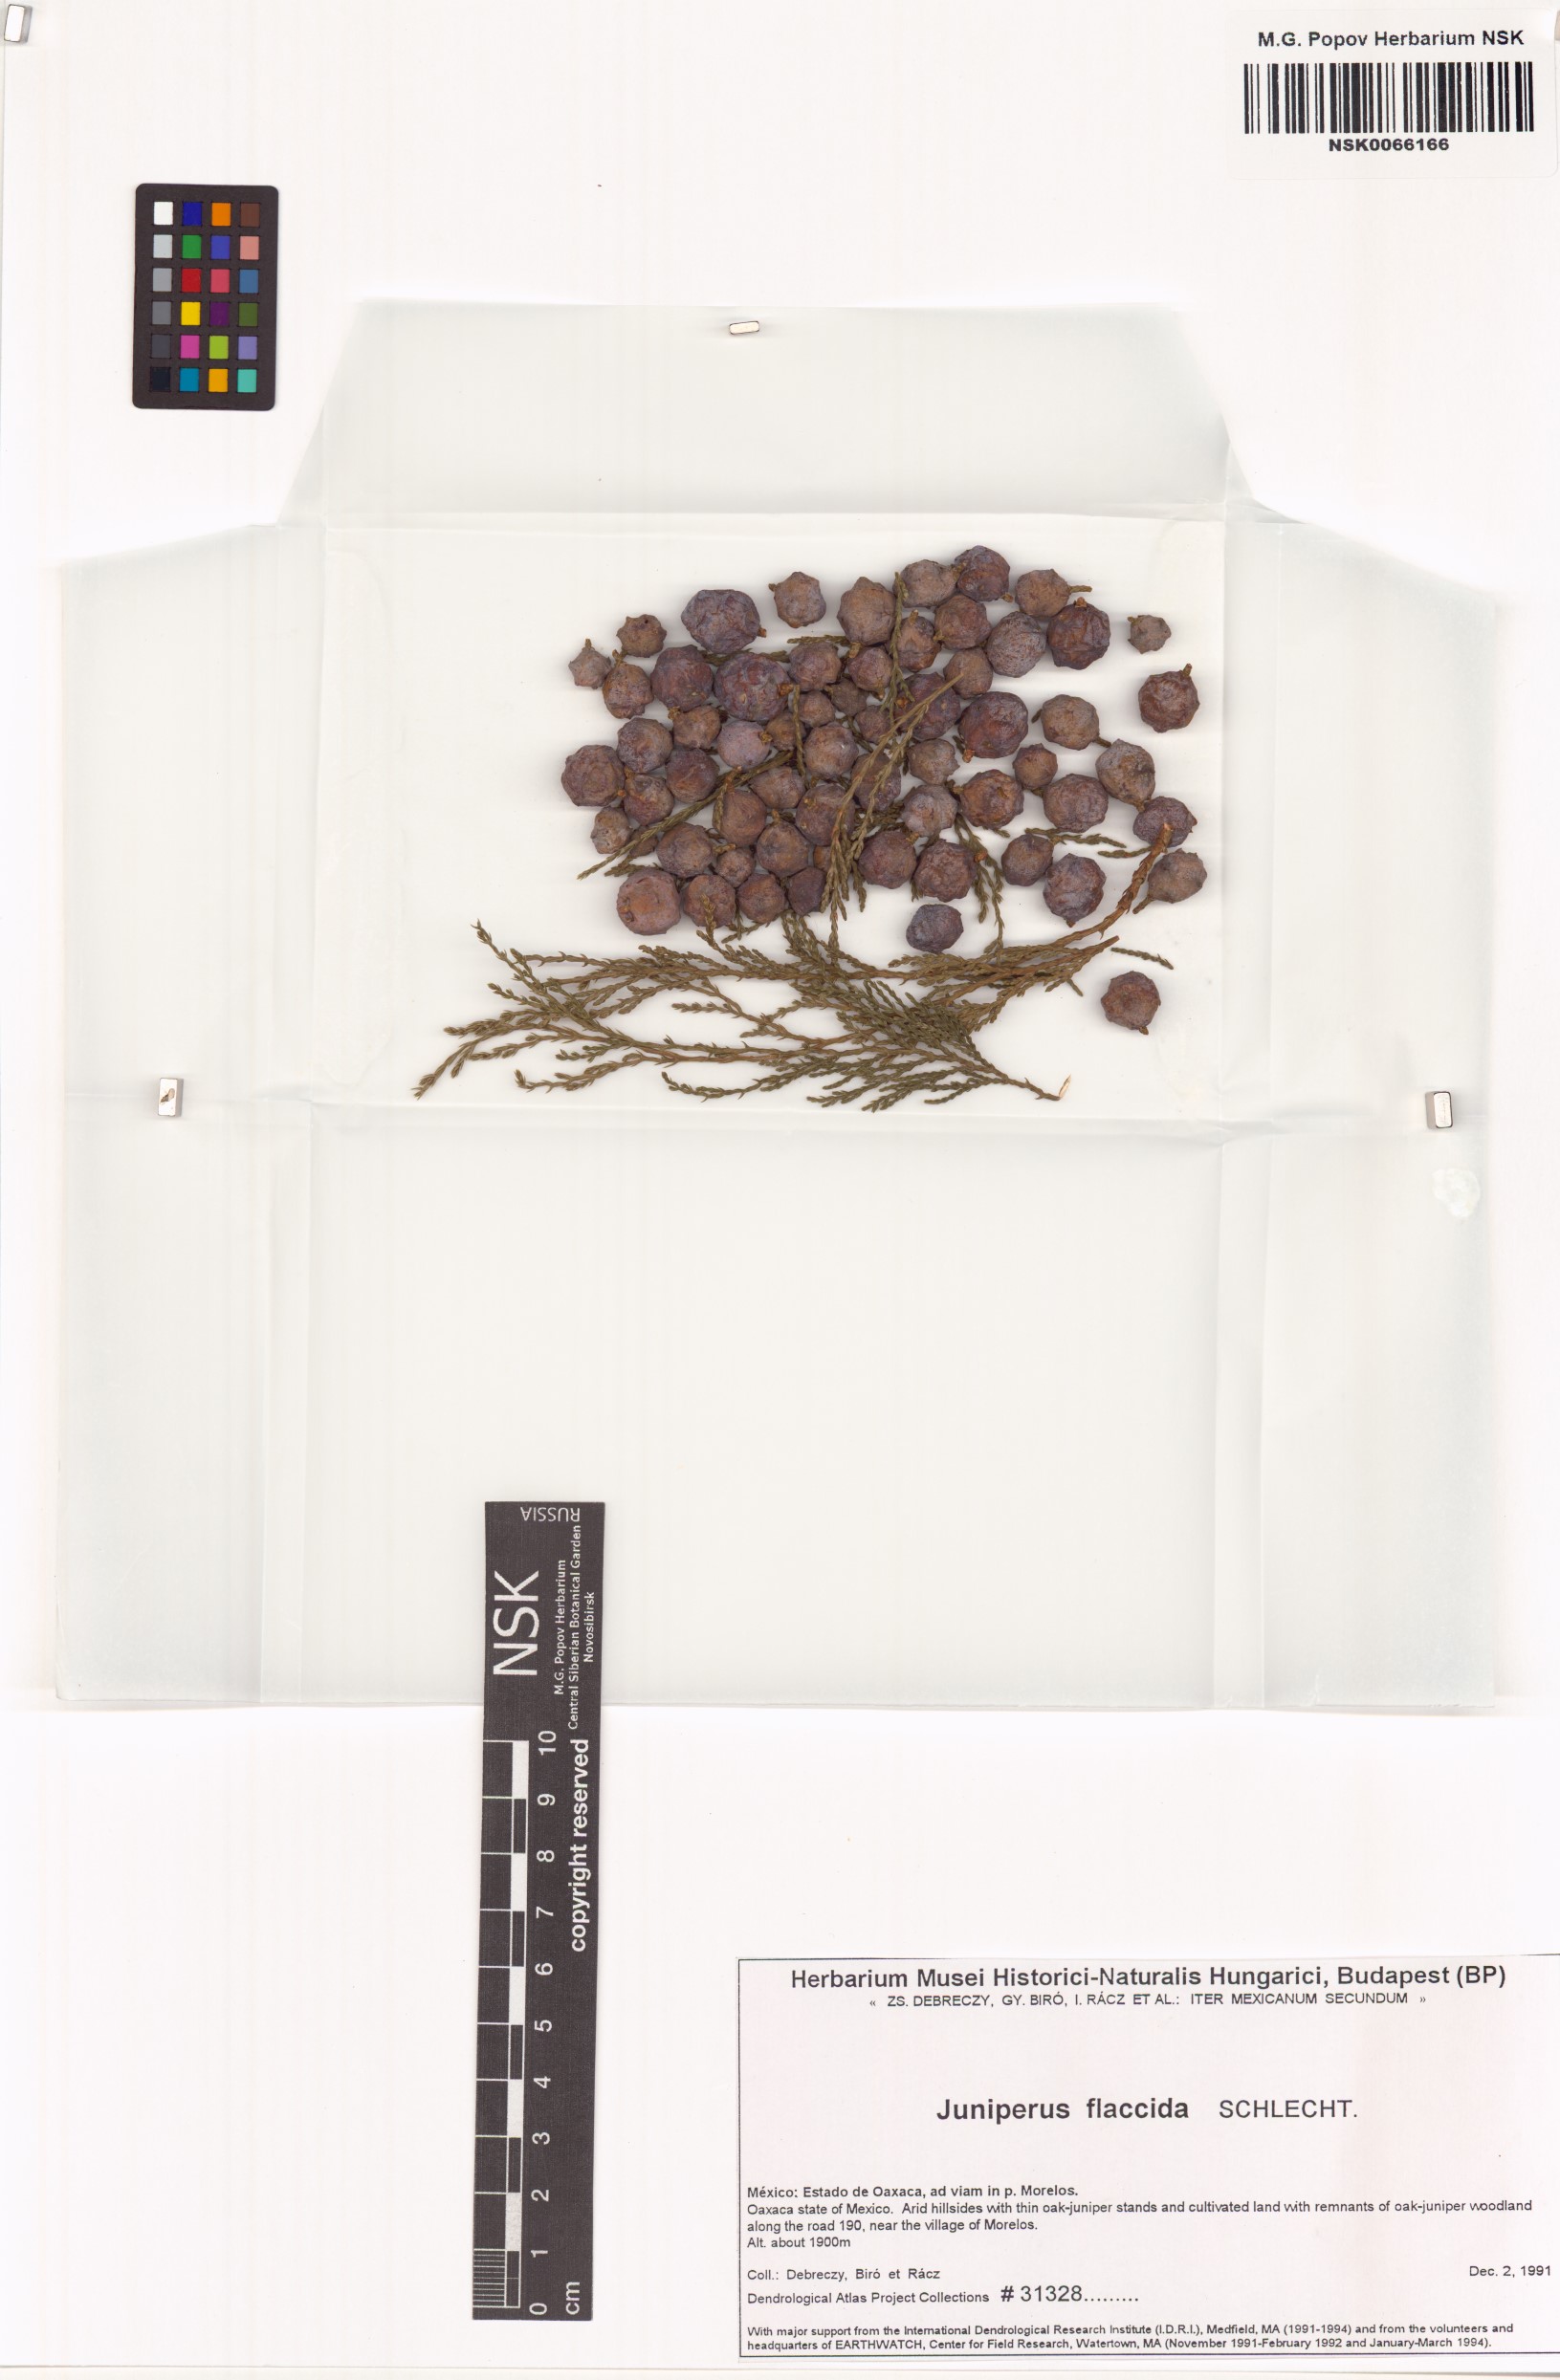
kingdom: Plantae
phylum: Tracheophyta
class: Pinopsida
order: Pinales
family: Cupressaceae
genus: Juniperus
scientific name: Juniperus flaccida
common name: Drooping juniper
